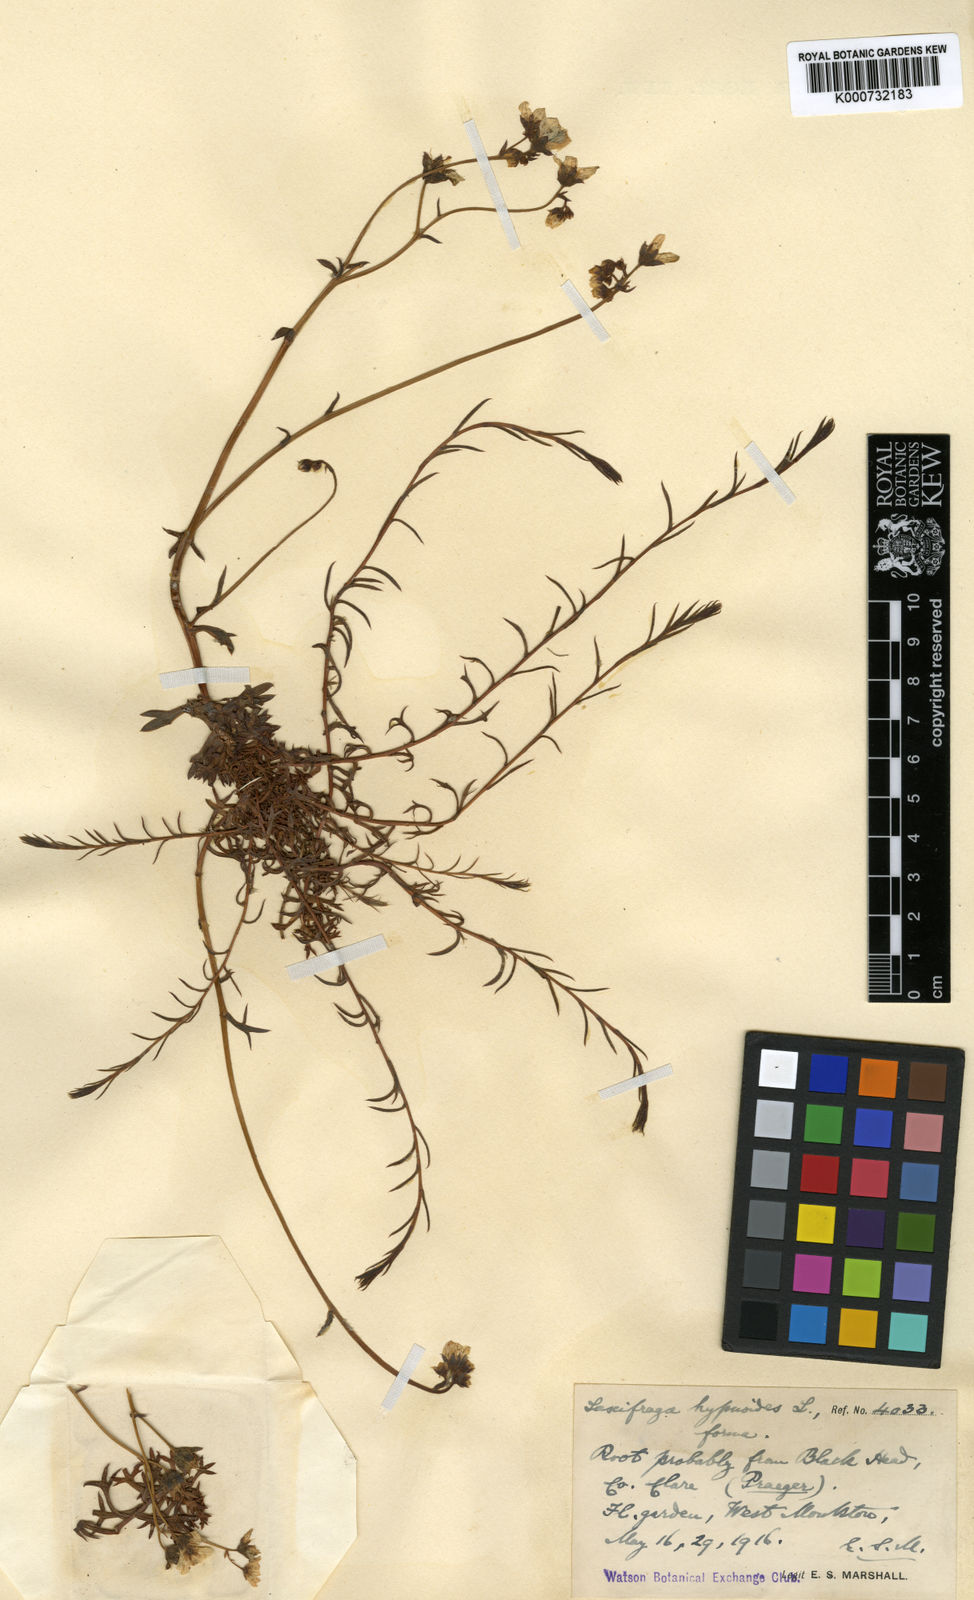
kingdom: Plantae
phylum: Tracheophyta
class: Magnoliopsida
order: Saxifragales
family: Saxifragaceae
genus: Saxifraga
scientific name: Saxifraga hypnoides
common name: Mossy saxifrage
